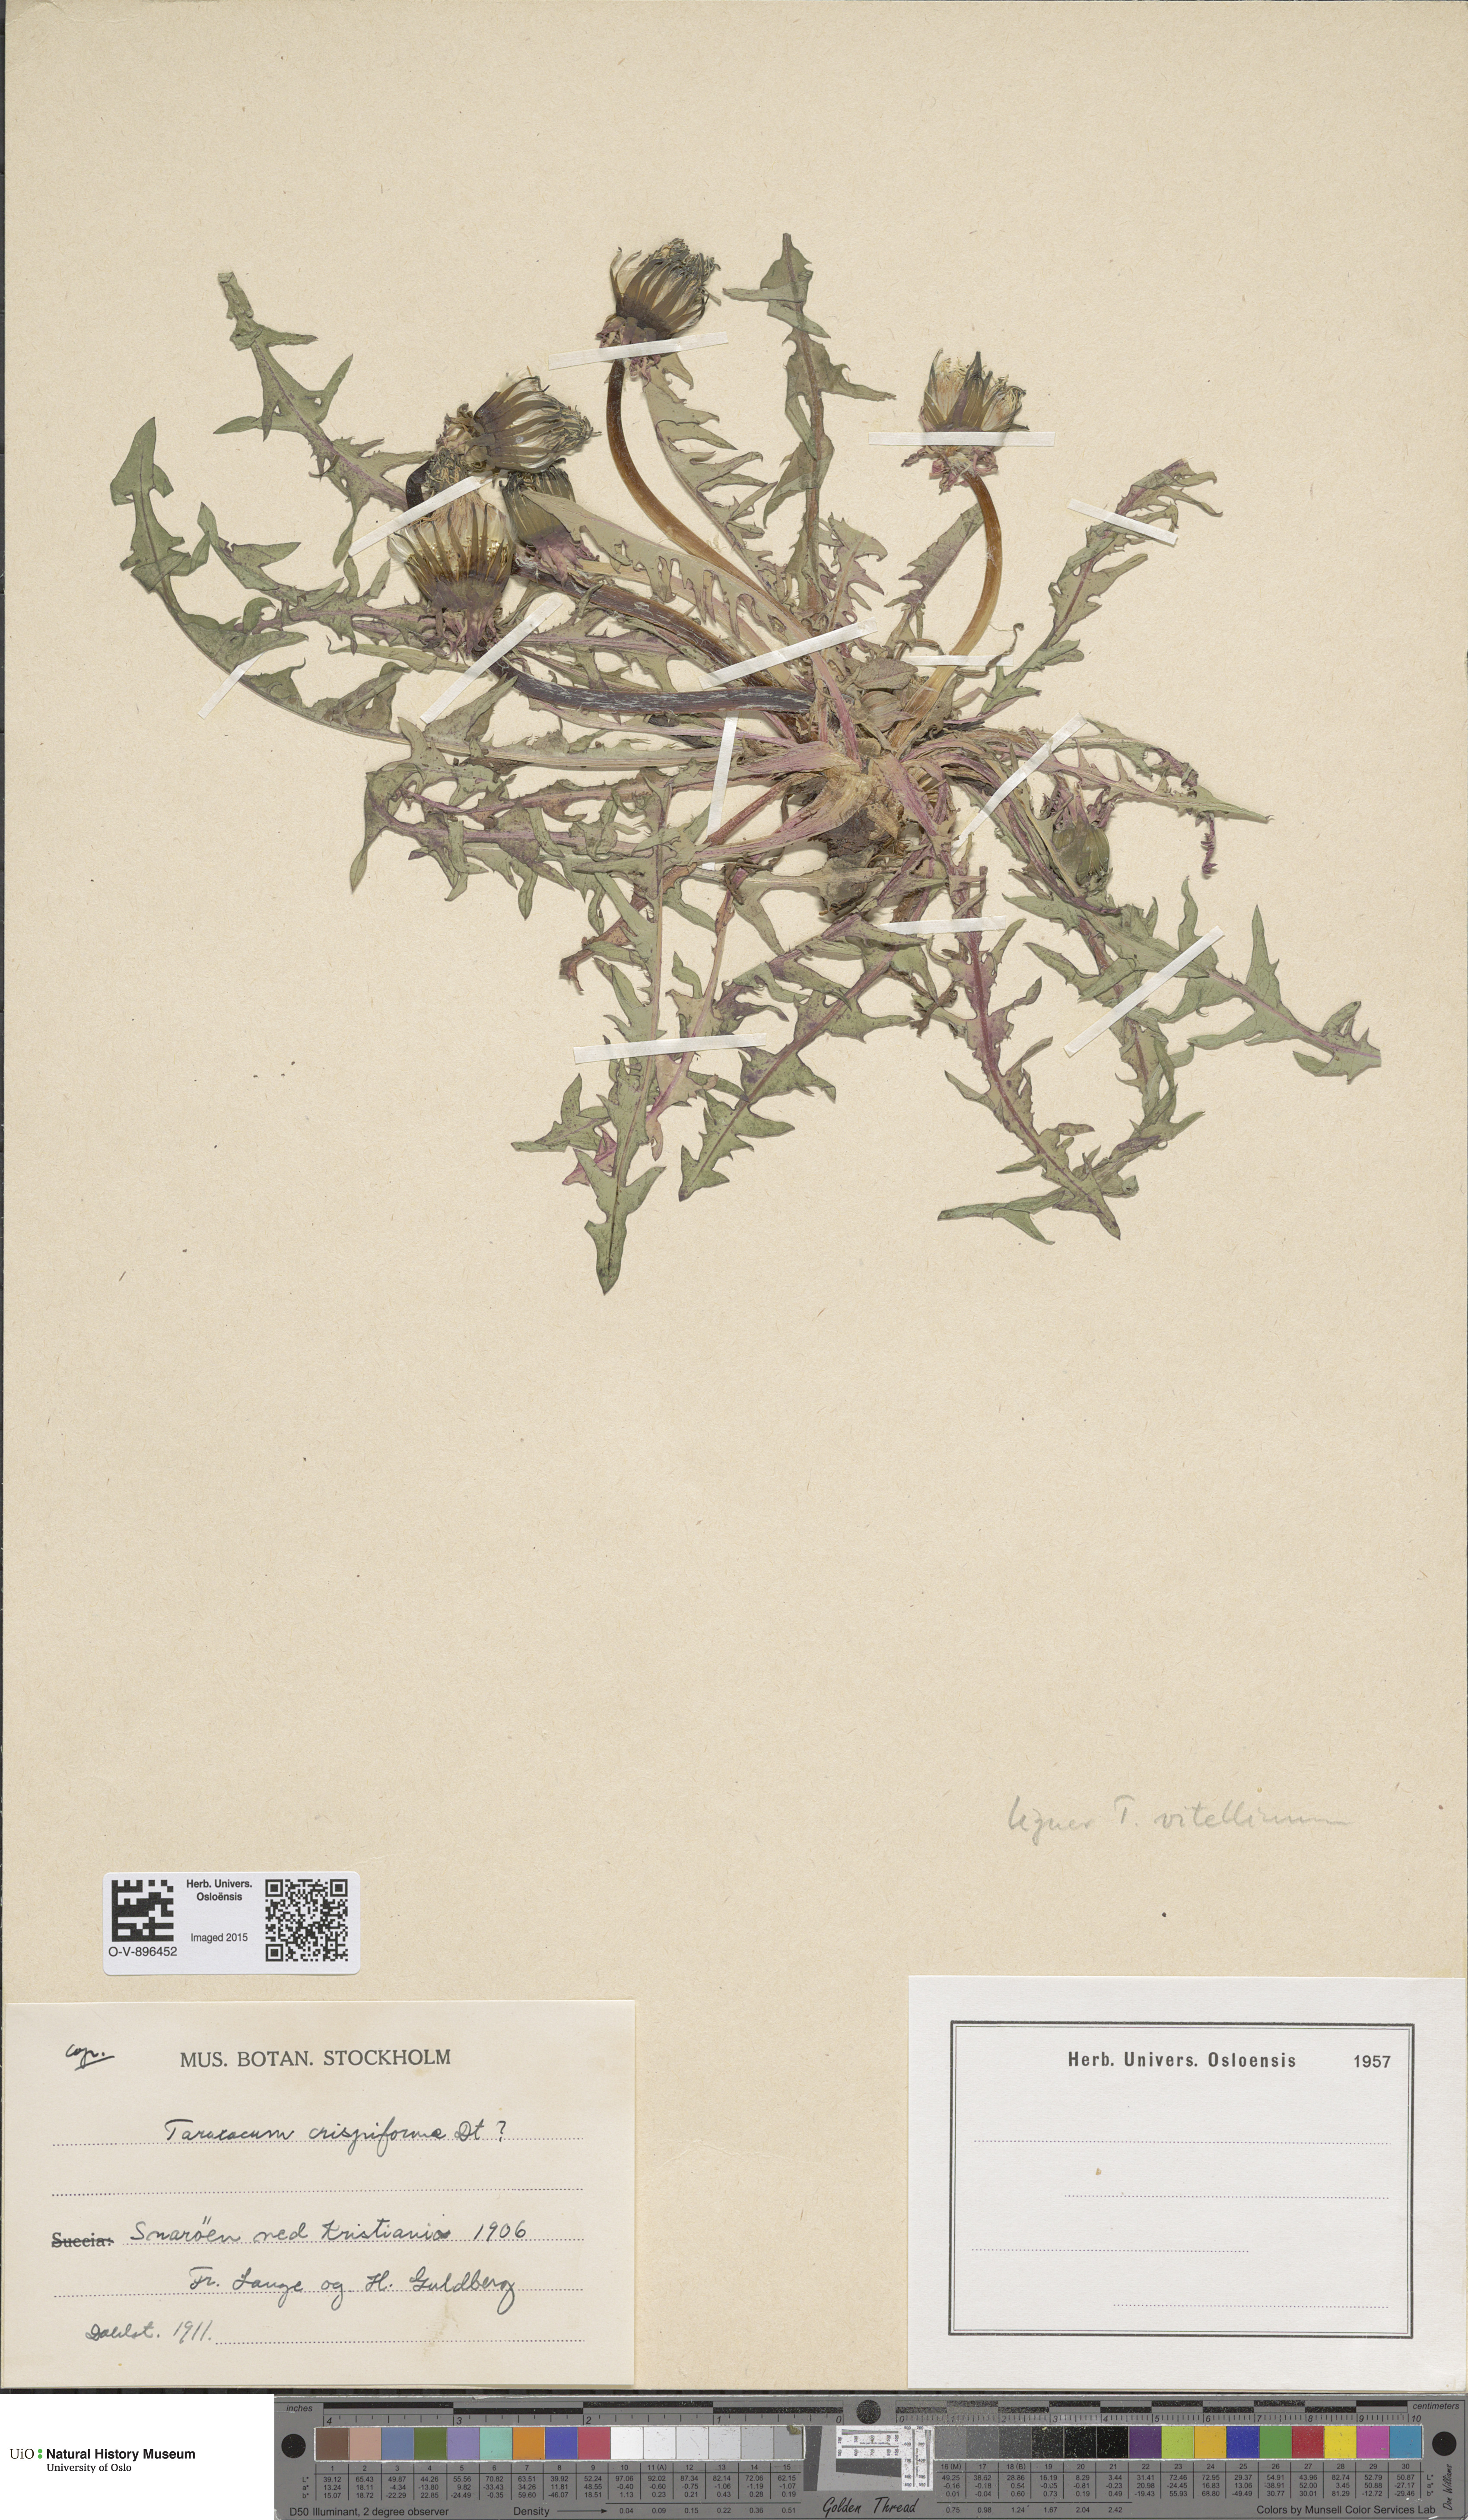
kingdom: Plantae
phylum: Tracheophyta
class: Magnoliopsida
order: Asterales
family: Asteraceae
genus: Taraxacum
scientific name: Taraxacum vitellinum
